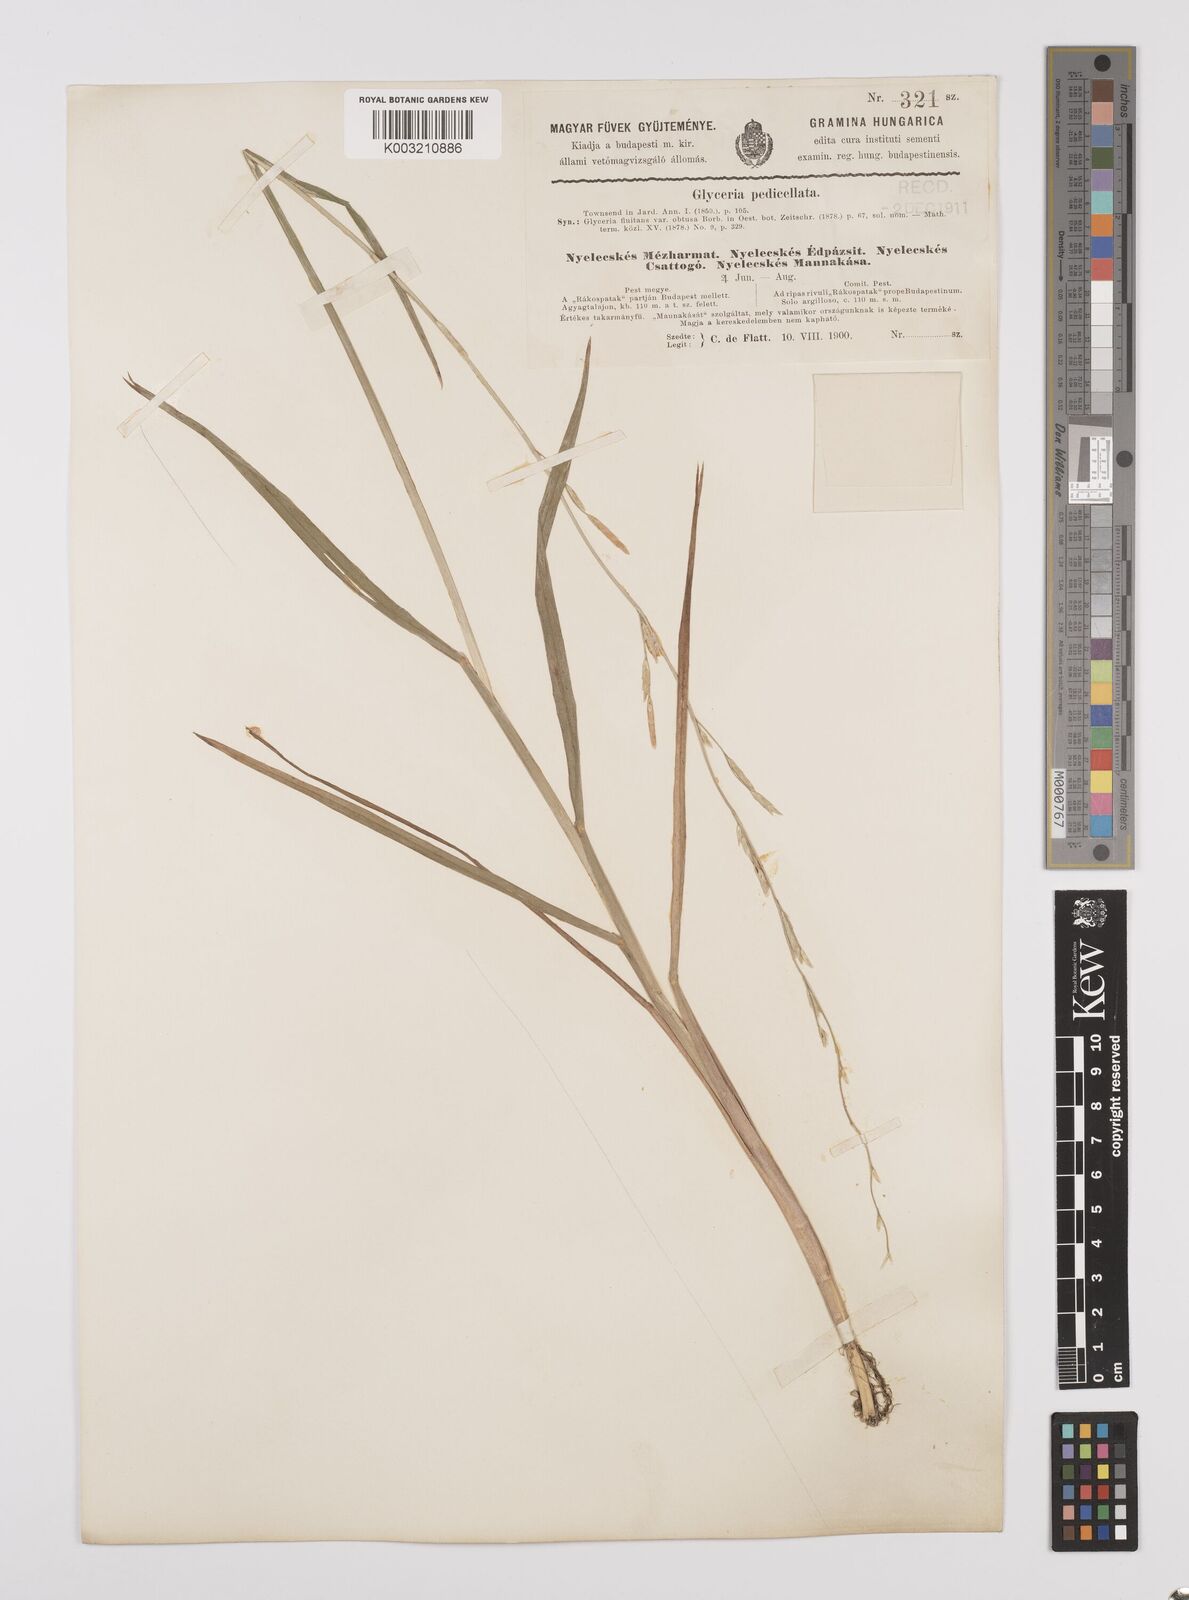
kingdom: Plantae
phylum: Tracheophyta
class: Liliopsida
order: Poales
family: Poaceae
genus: Glyceria
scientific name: Glyceria fluitans
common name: Floating sweet-grass
